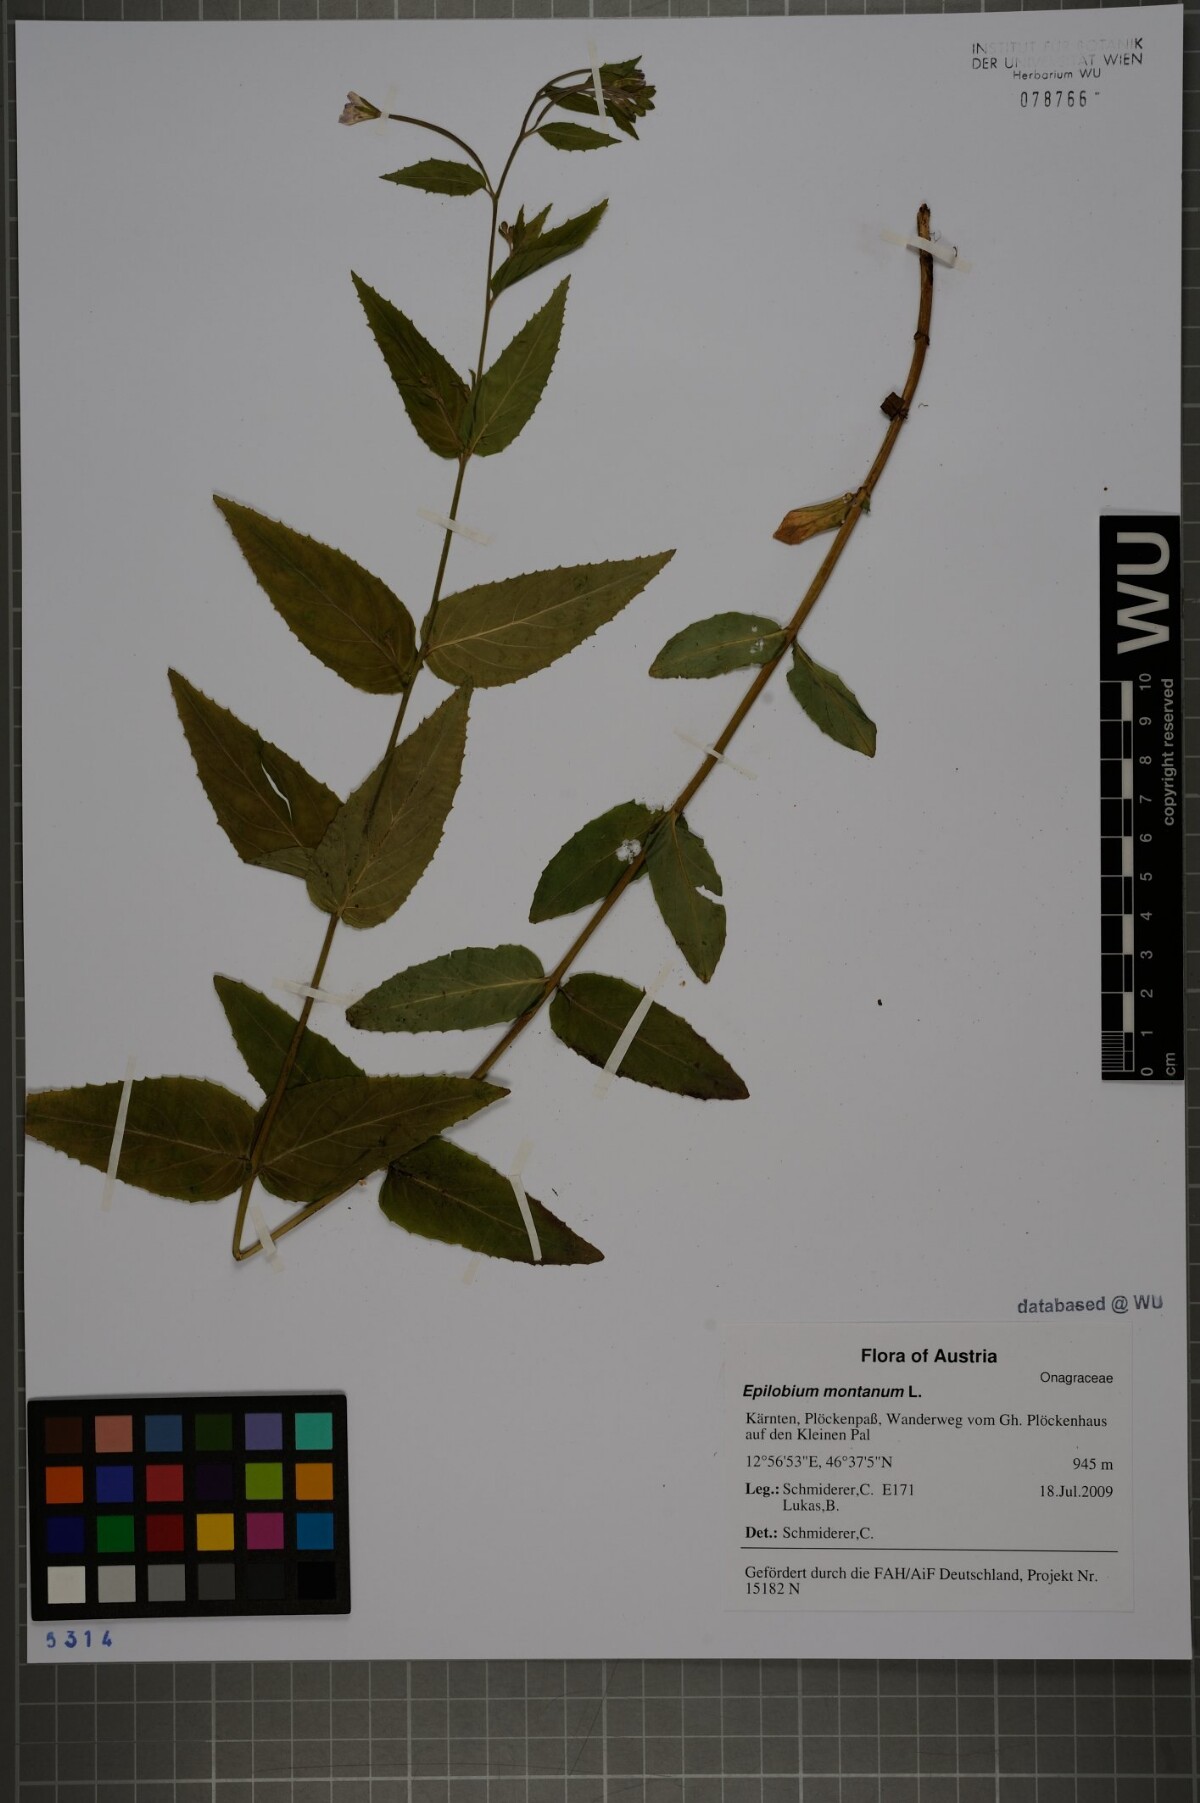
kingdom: Plantae
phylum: Tracheophyta
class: Magnoliopsida
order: Myrtales
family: Onagraceae
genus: Epilobium
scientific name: Epilobium montanum
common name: Broad-leaved willowherb
